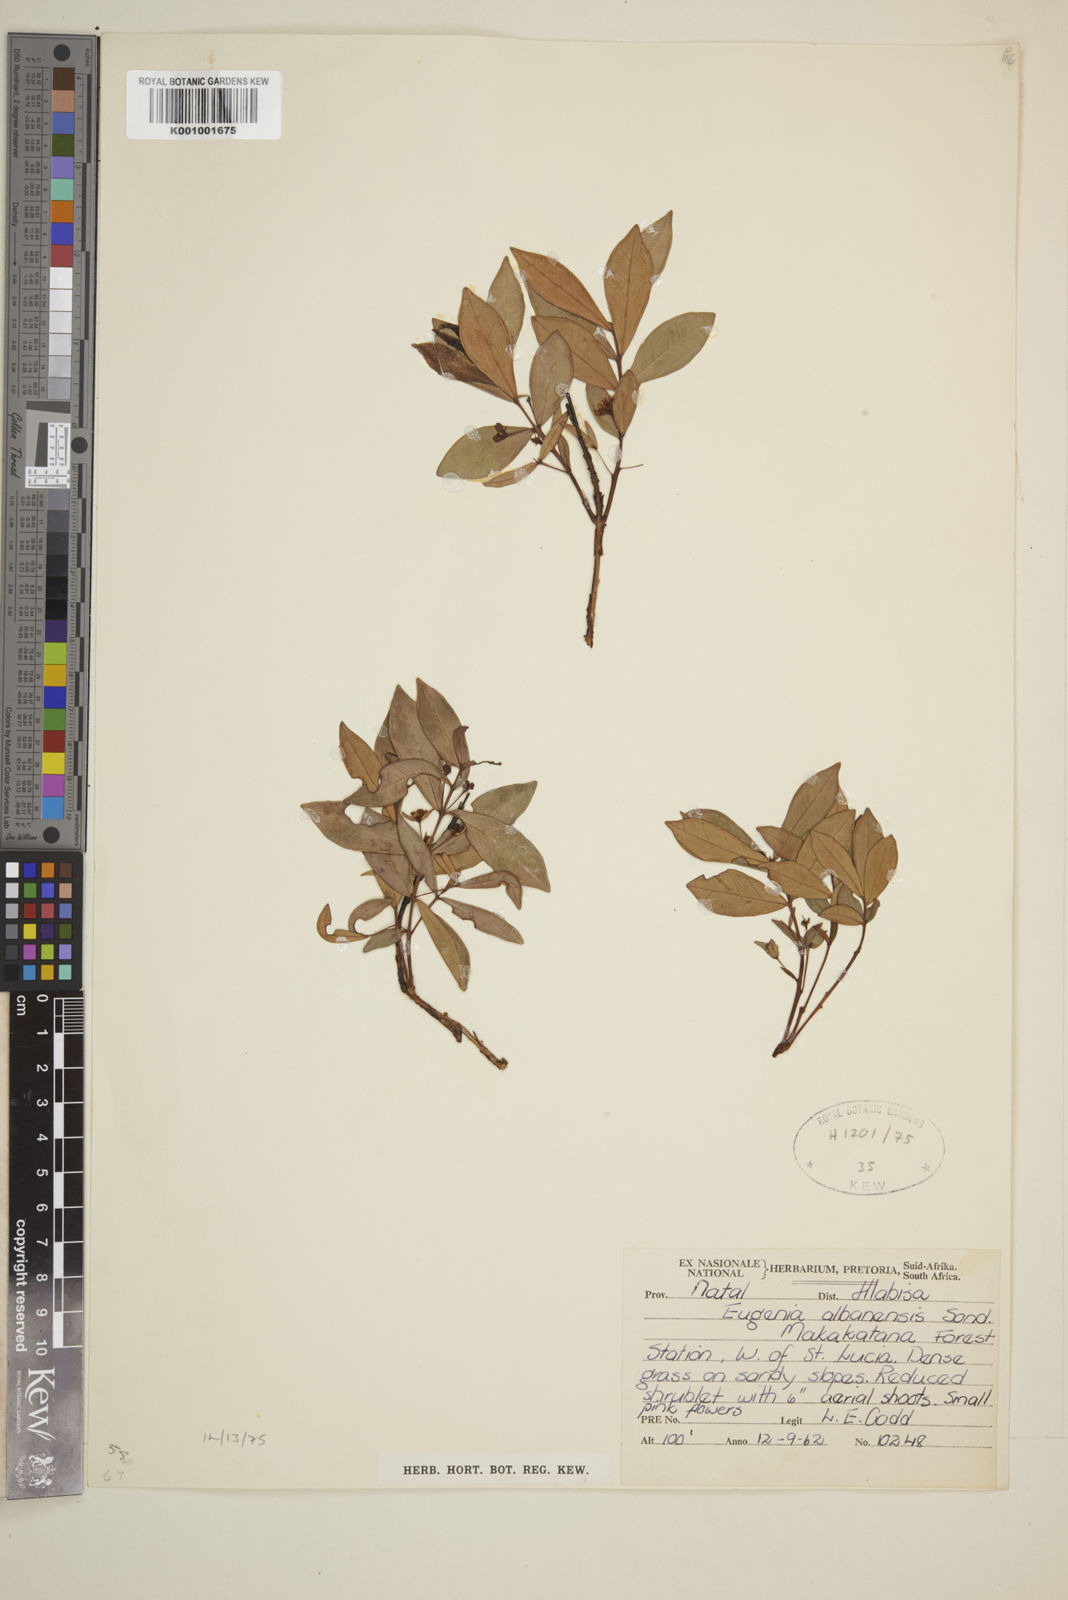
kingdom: Plantae
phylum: Tracheophyta
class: Magnoliopsida
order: Myrtales
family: Myrtaceae
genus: Eugenia
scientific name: Eugenia capensis
